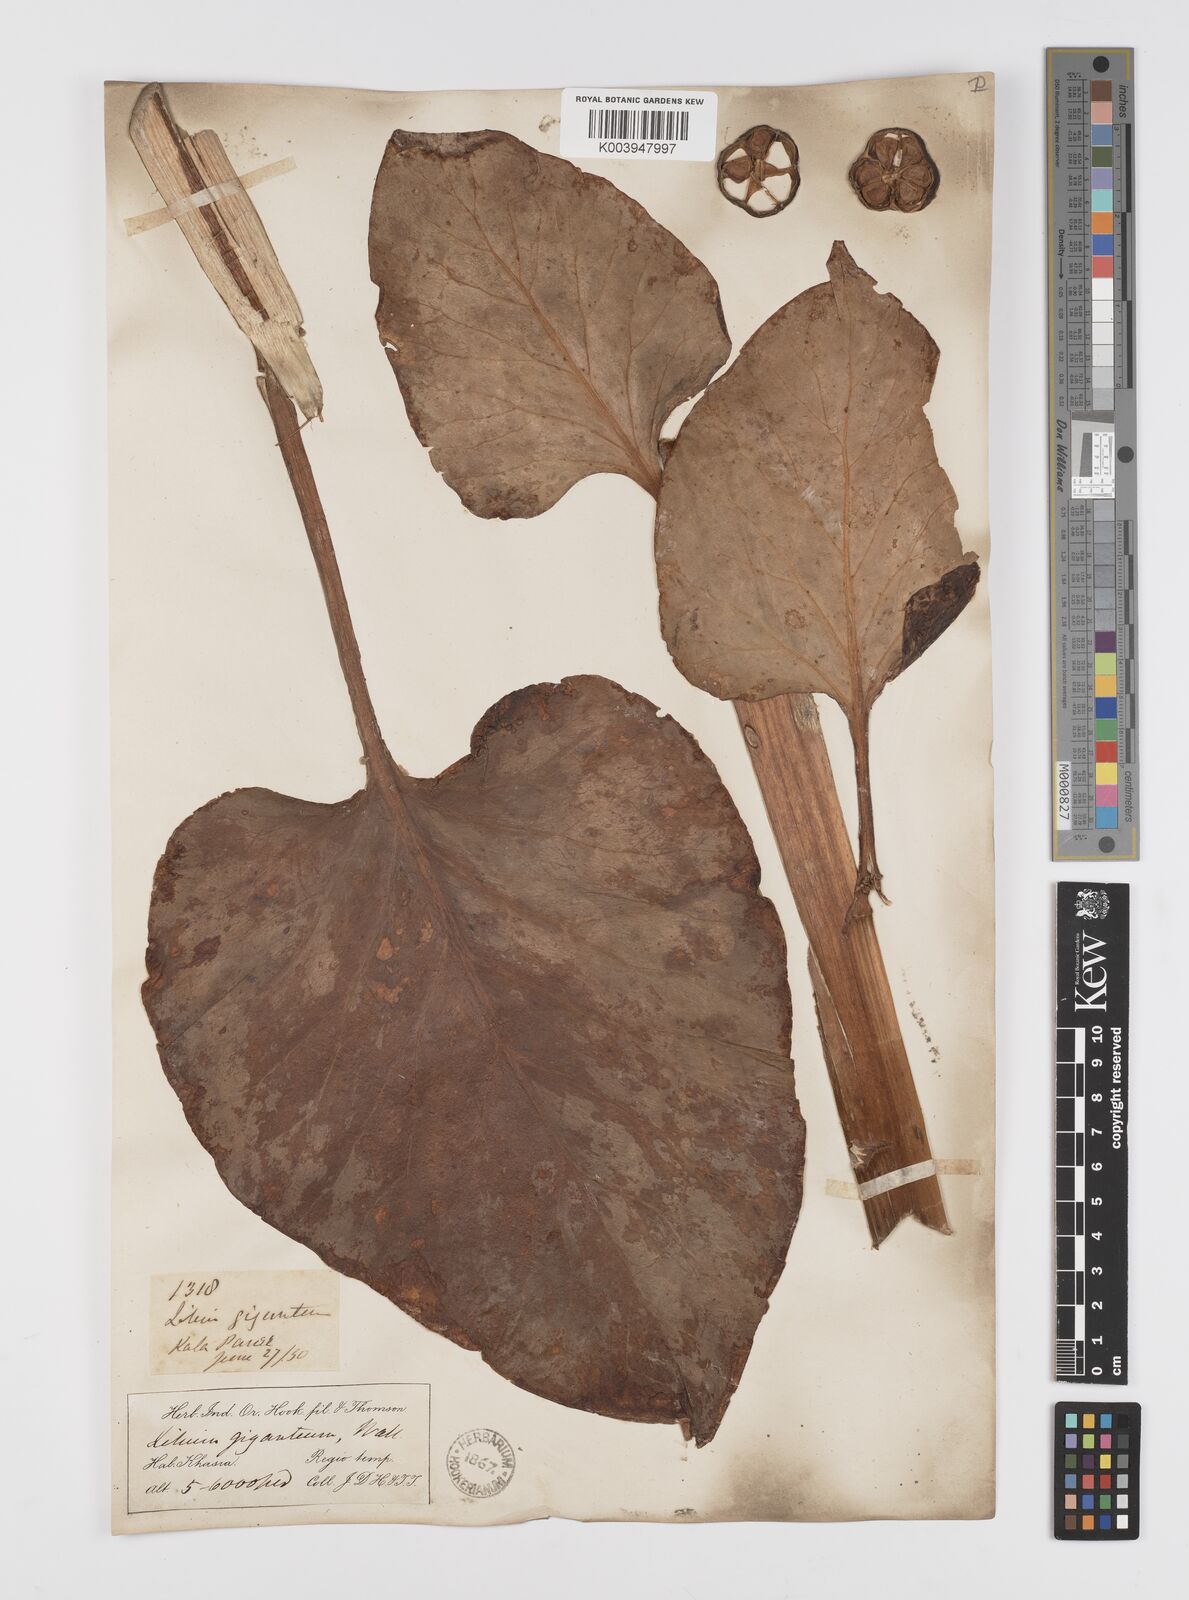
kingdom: Plantae
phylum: Tracheophyta
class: Liliopsida
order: Liliales
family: Liliaceae
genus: Cardiocrinum
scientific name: Cardiocrinum giganteum
